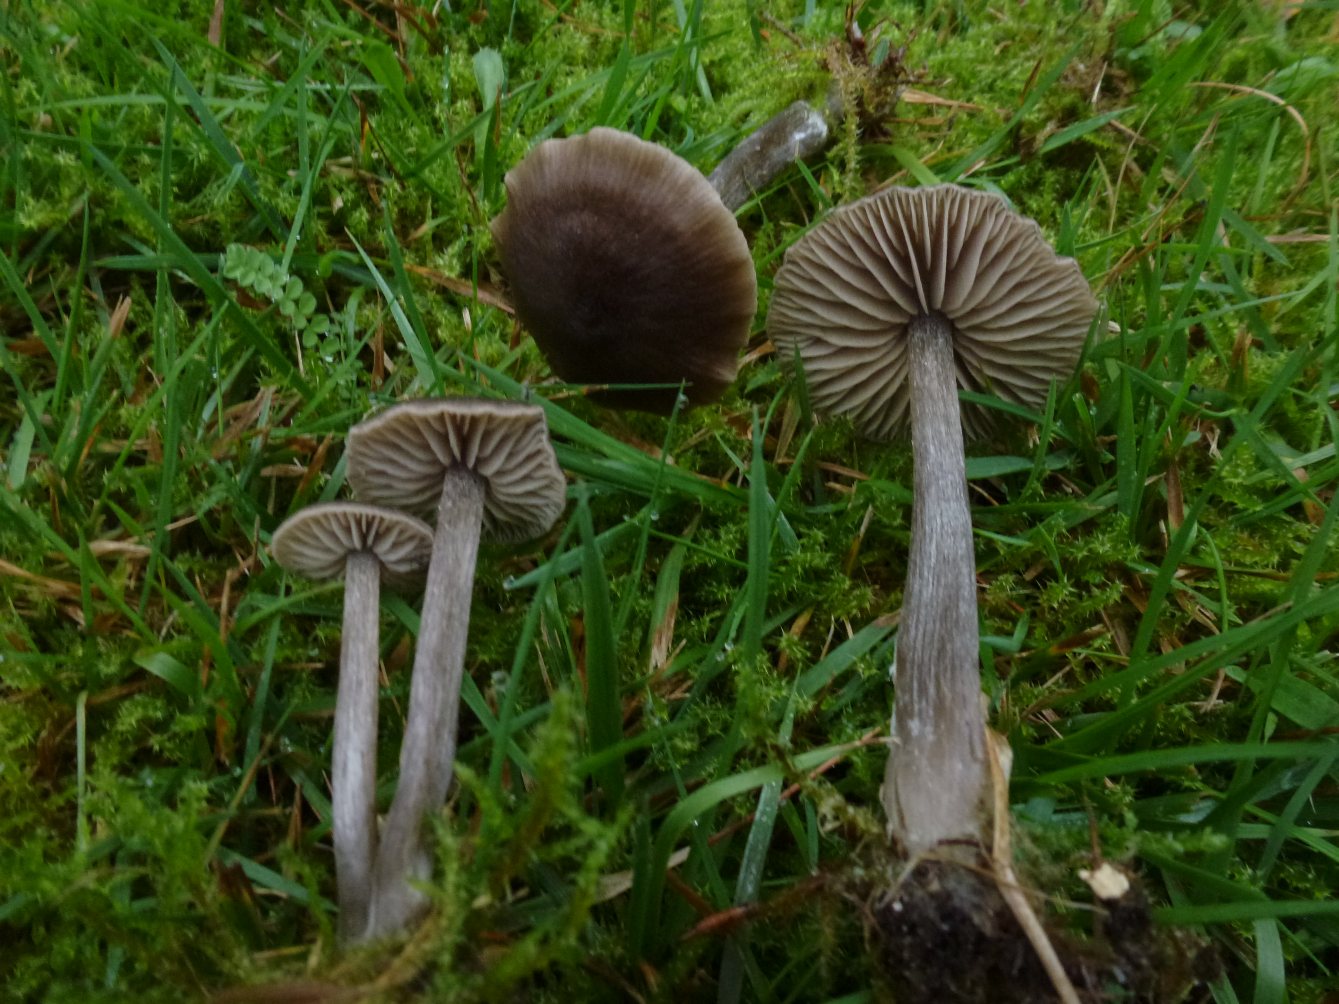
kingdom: Fungi
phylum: Basidiomycota
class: Agaricomycetes
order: Agaricales
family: Entolomataceae
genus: Entoloma
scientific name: Entoloma
